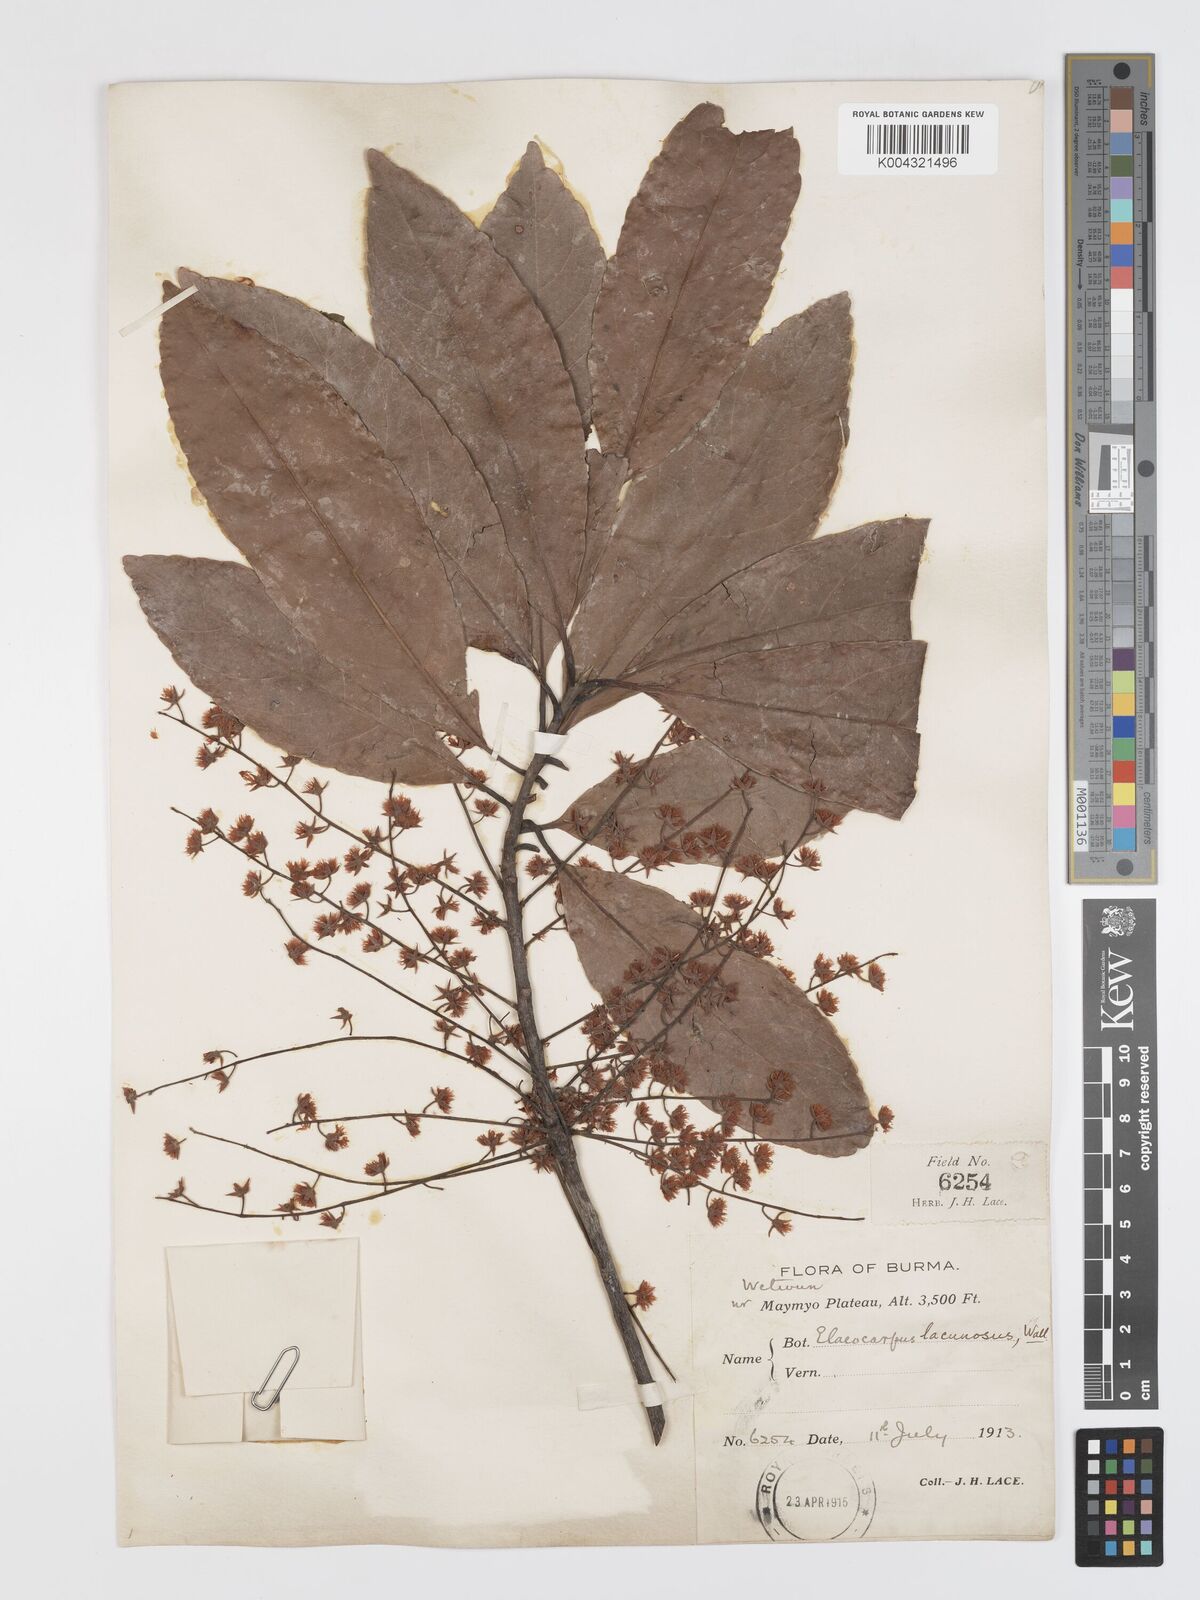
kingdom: Plantae
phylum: Tracheophyta
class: Magnoliopsida
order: Oxalidales
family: Elaeocarpaceae
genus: Elaeocarpus
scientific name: Elaeocarpus lanceifolius
